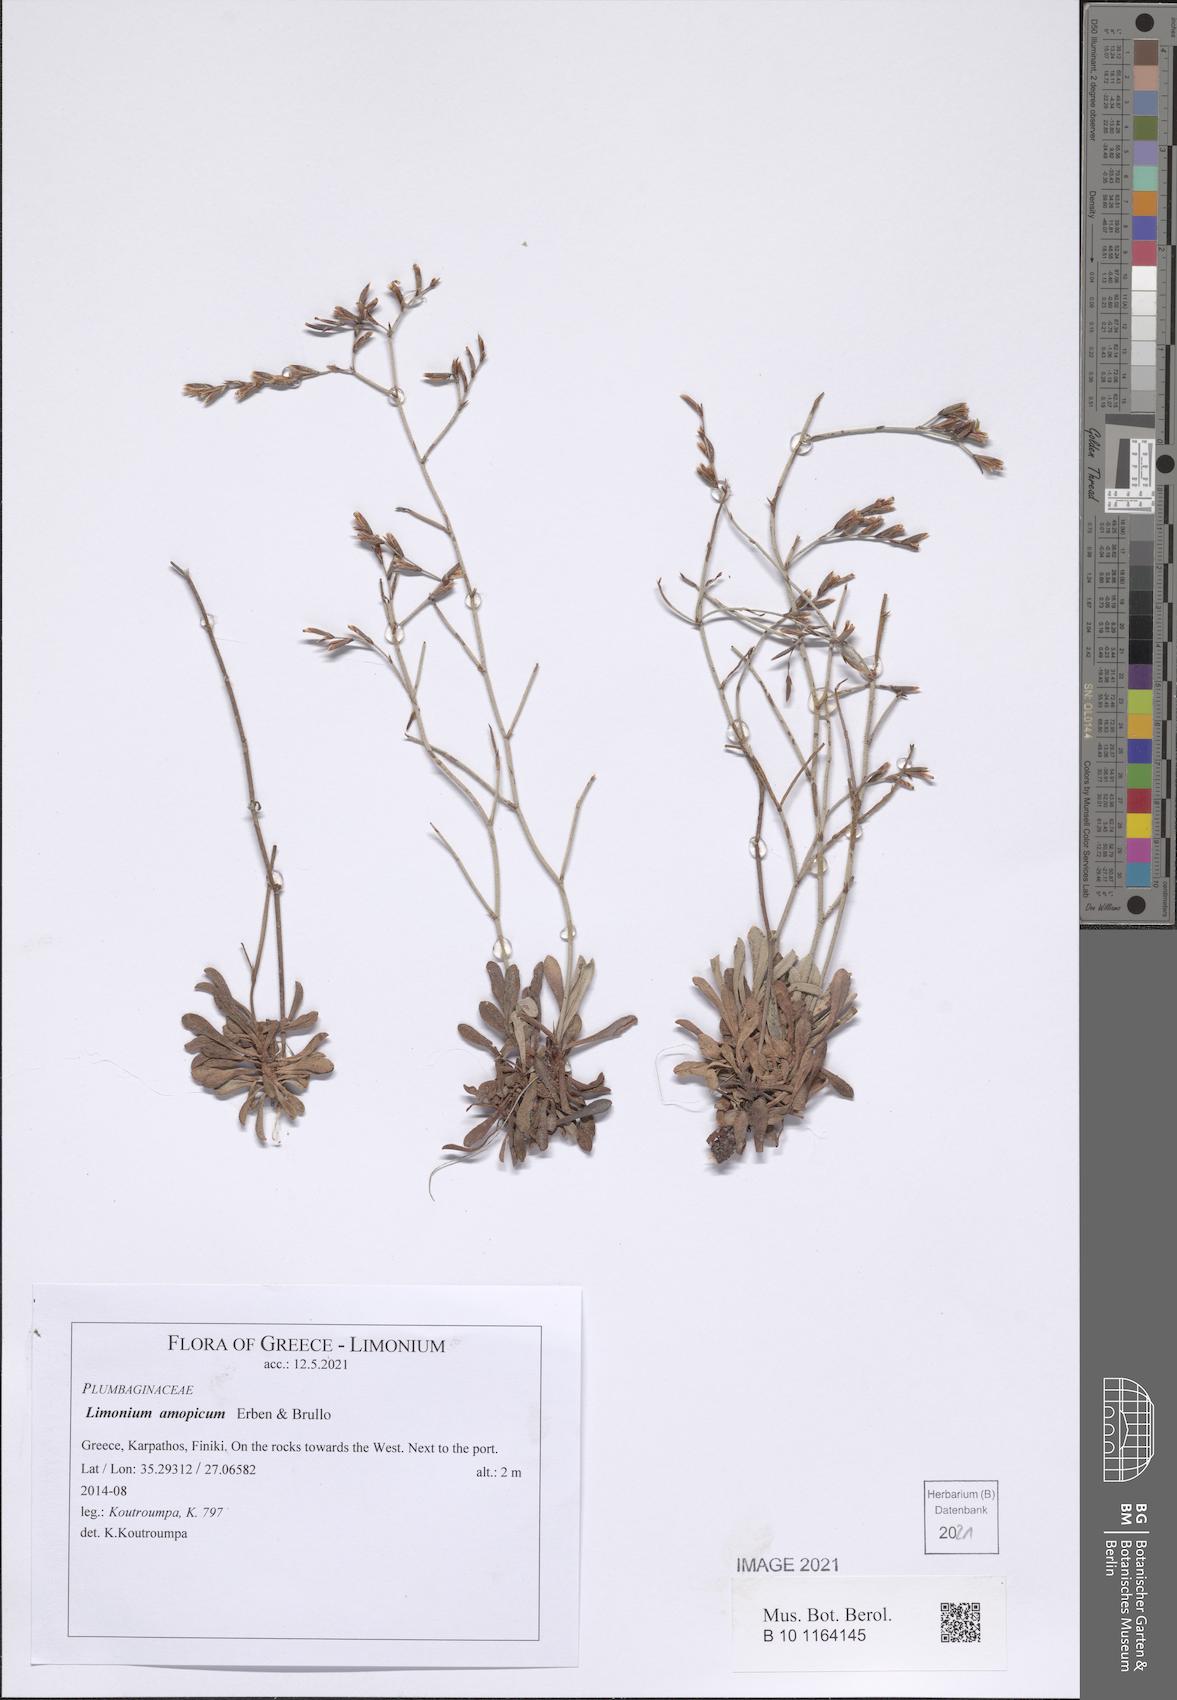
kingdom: Plantae
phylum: Tracheophyta
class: Magnoliopsida
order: Caryophyllales
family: Plumbaginaceae
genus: Limonium
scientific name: Limonium amopicum
